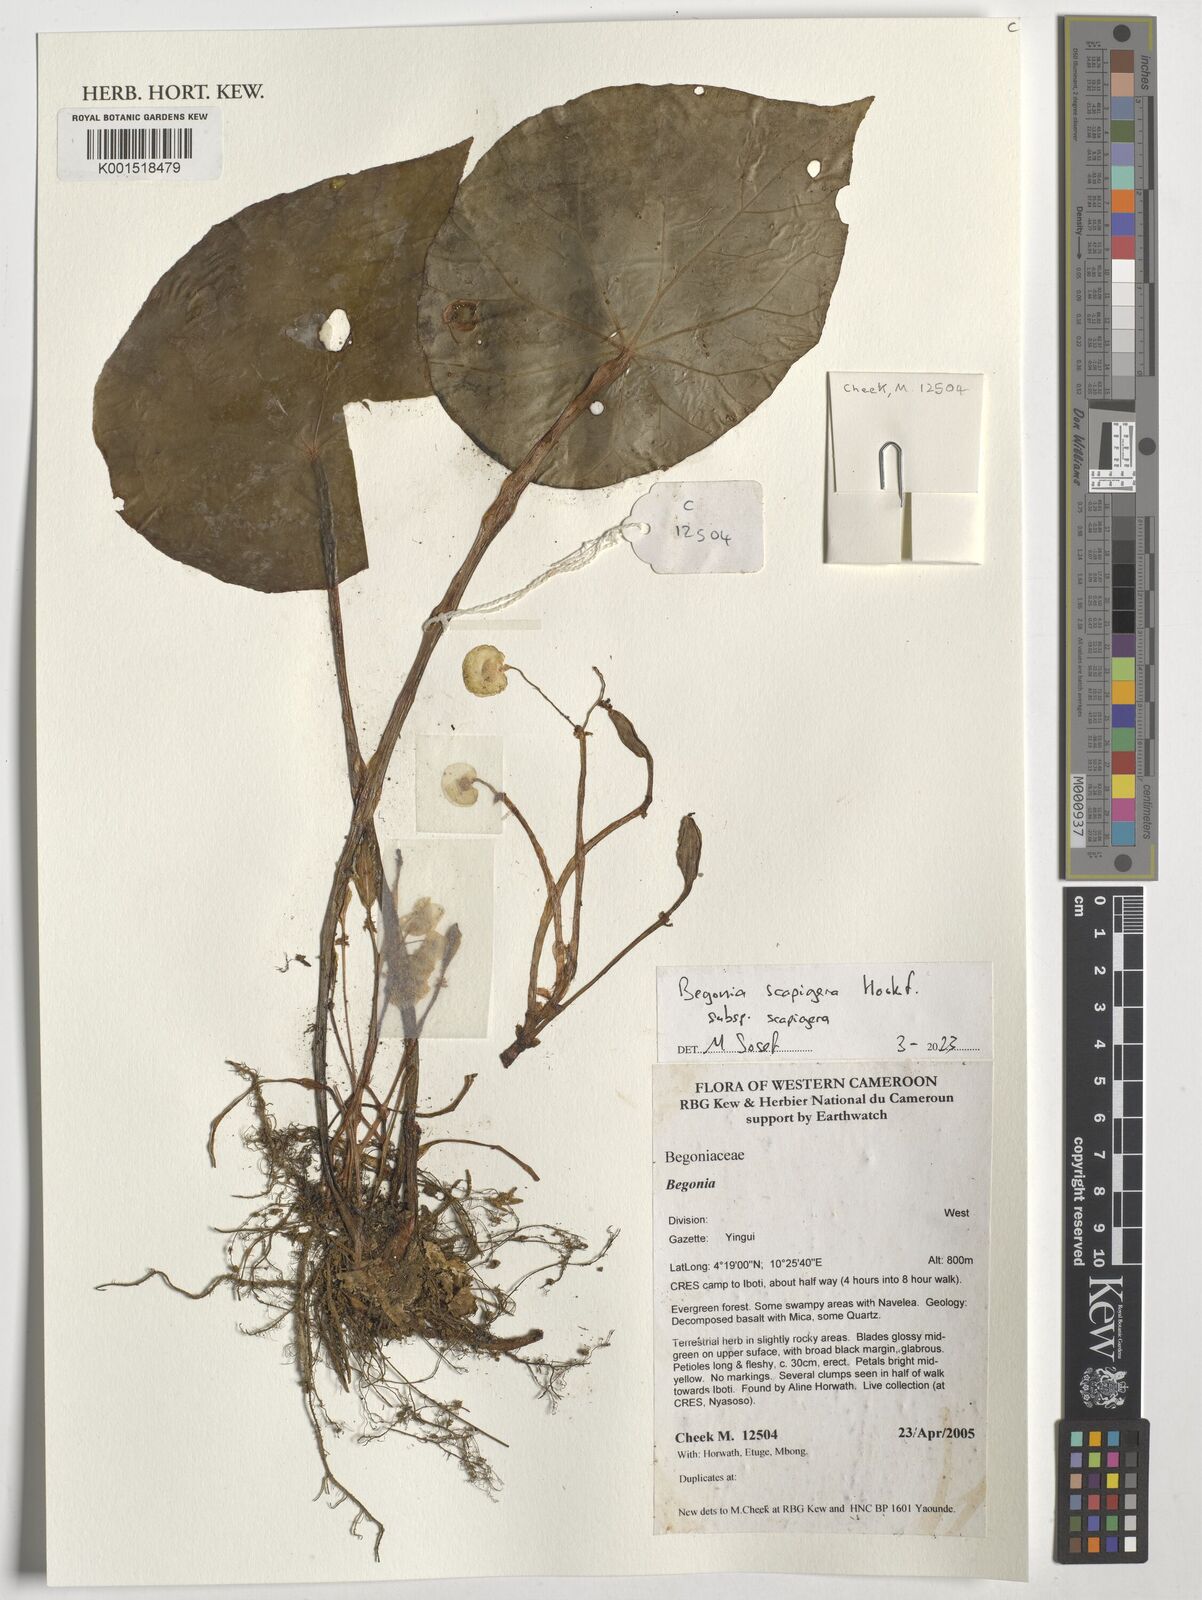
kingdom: Plantae
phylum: Tracheophyta
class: Magnoliopsida
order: Cucurbitales
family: Begoniaceae
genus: Begonia
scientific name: Begonia scapigera
